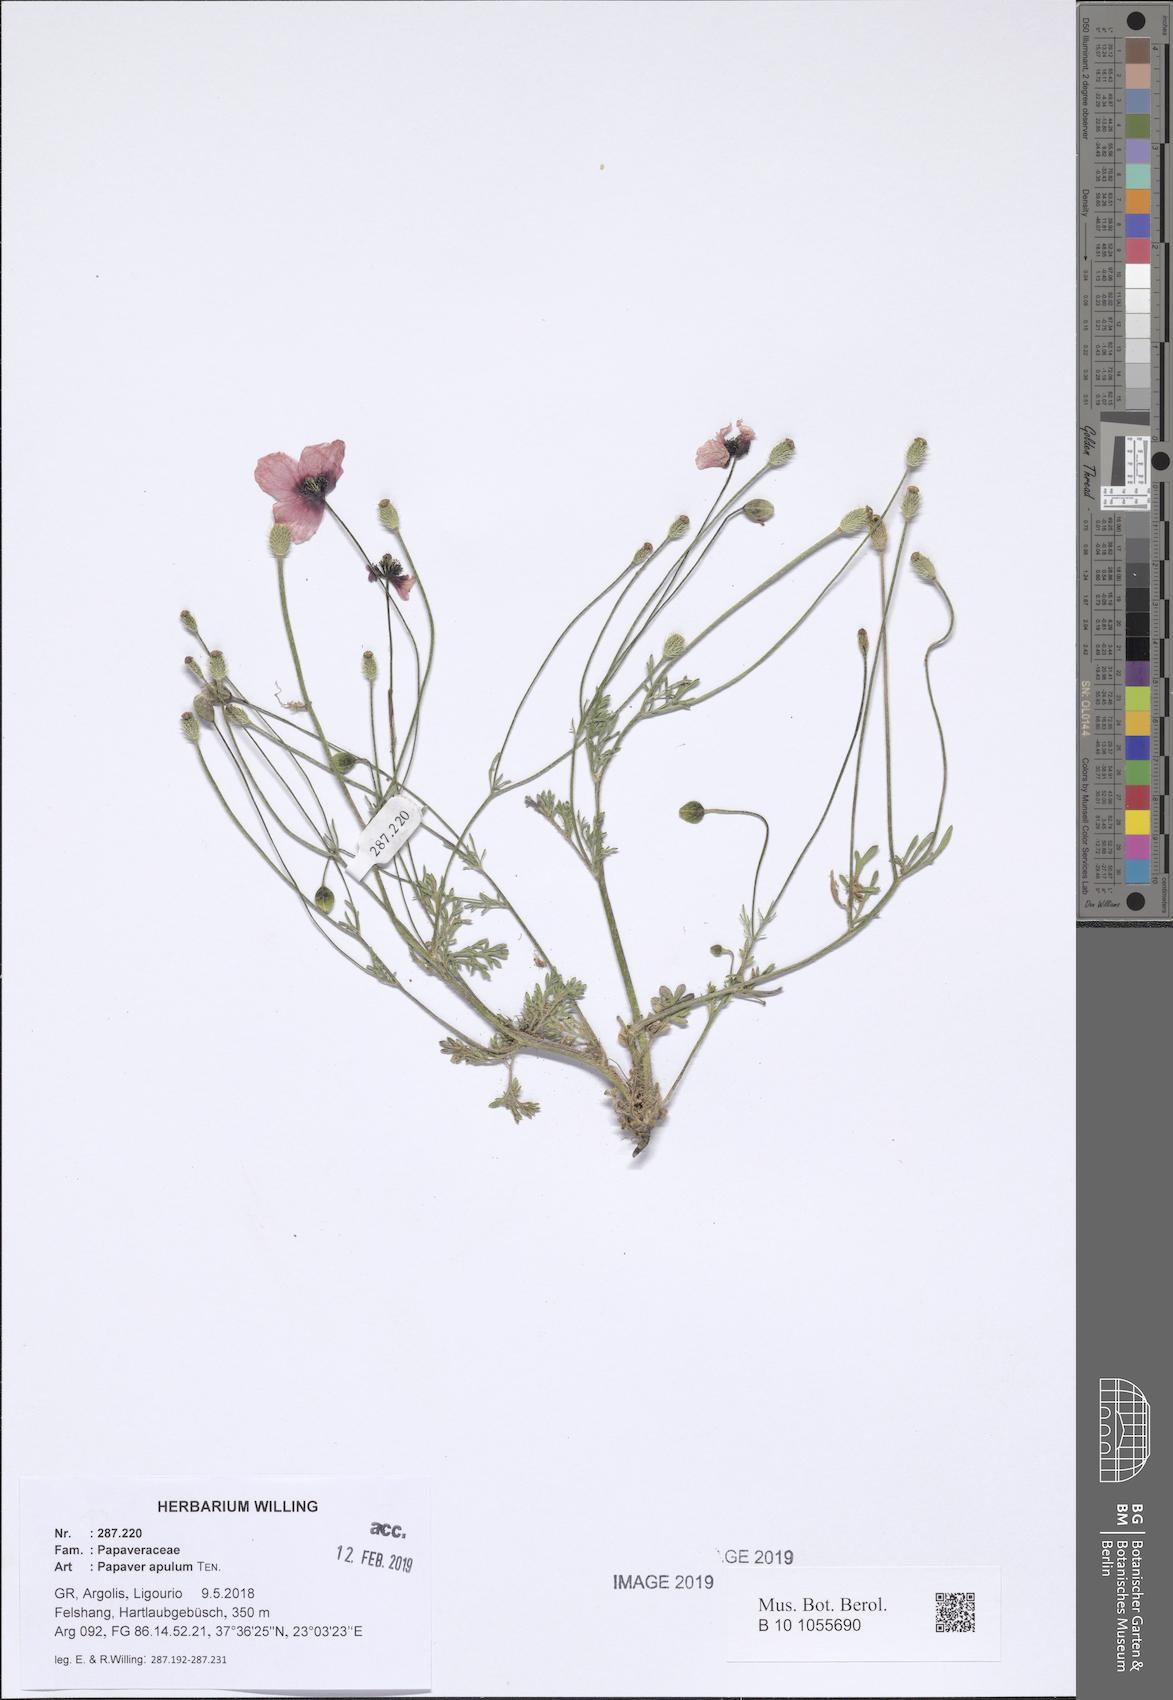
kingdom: Plantae
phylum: Tracheophyta
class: Magnoliopsida
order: Ranunculales
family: Papaveraceae
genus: Roemeria
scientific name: Roemeria apula
